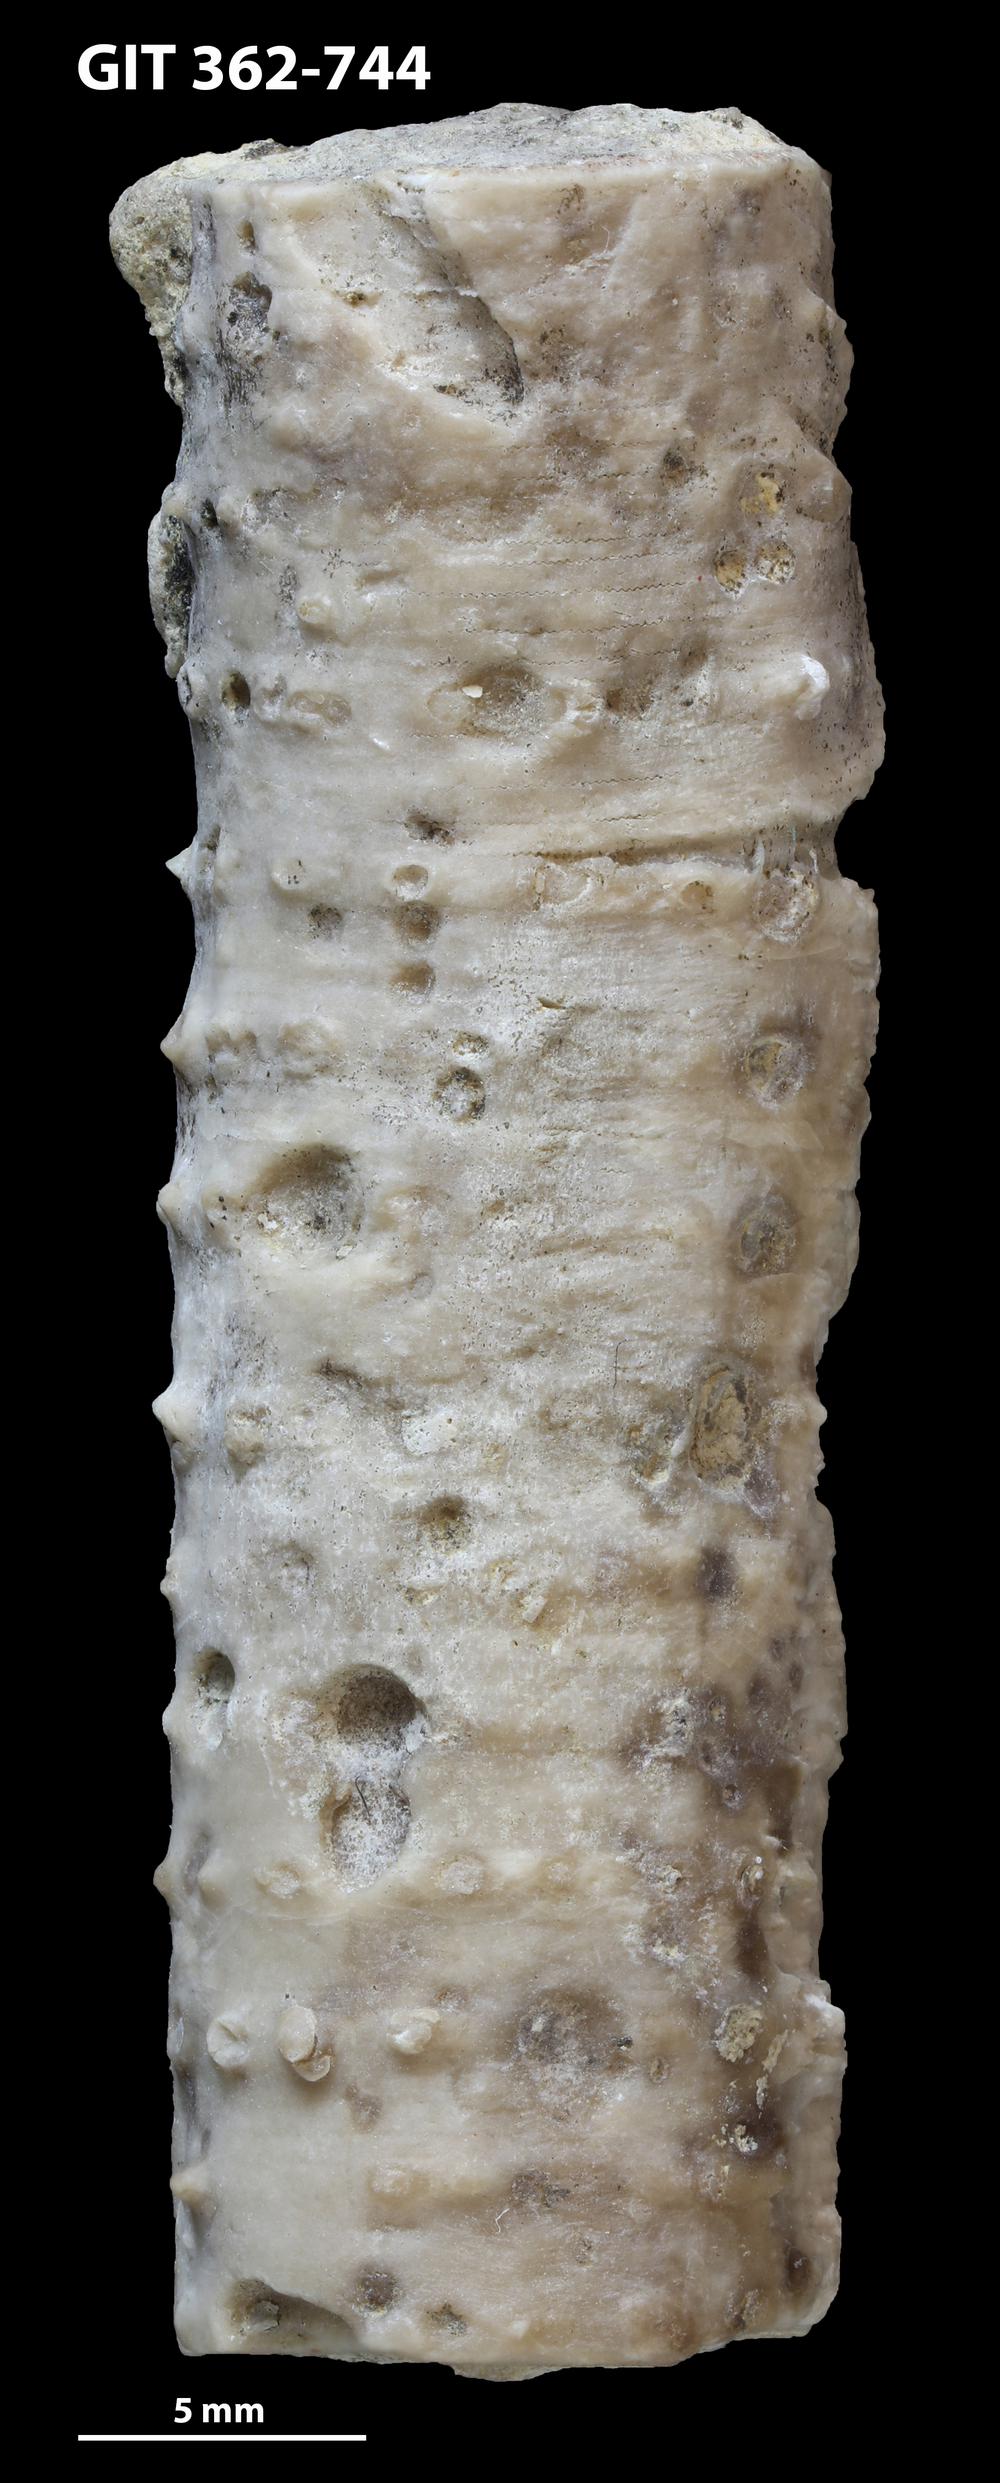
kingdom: Animalia
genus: Tremichnus
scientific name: Tremichnus
